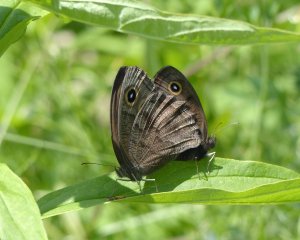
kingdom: Animalia
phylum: Arthropoda
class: Insecta
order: Lepidoptera
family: Nymphalidae
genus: Cercyonis
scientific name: Cercyonis pegala
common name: Common Wood-Nymph
